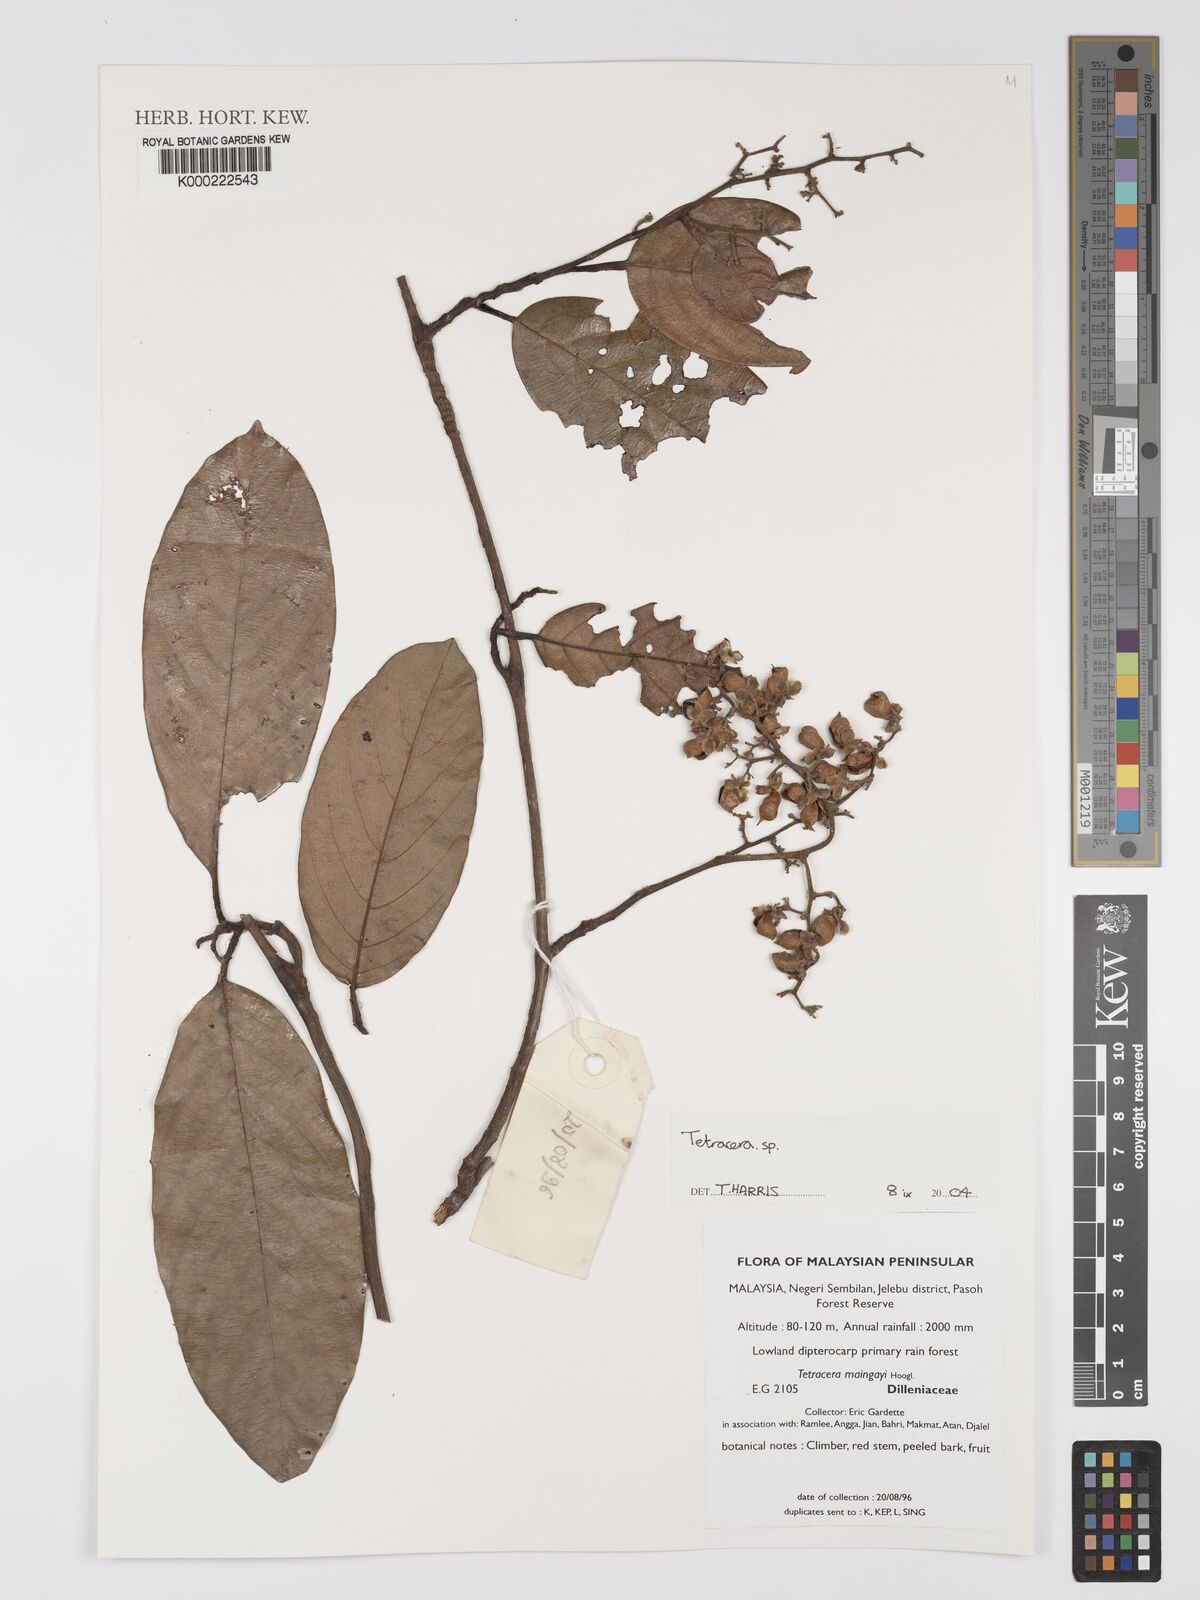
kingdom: Plantae
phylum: Tracheophyta
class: Magnoliopsida
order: Dilleniales
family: Dilleniaceae
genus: Tetracera
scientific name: Tetracera
